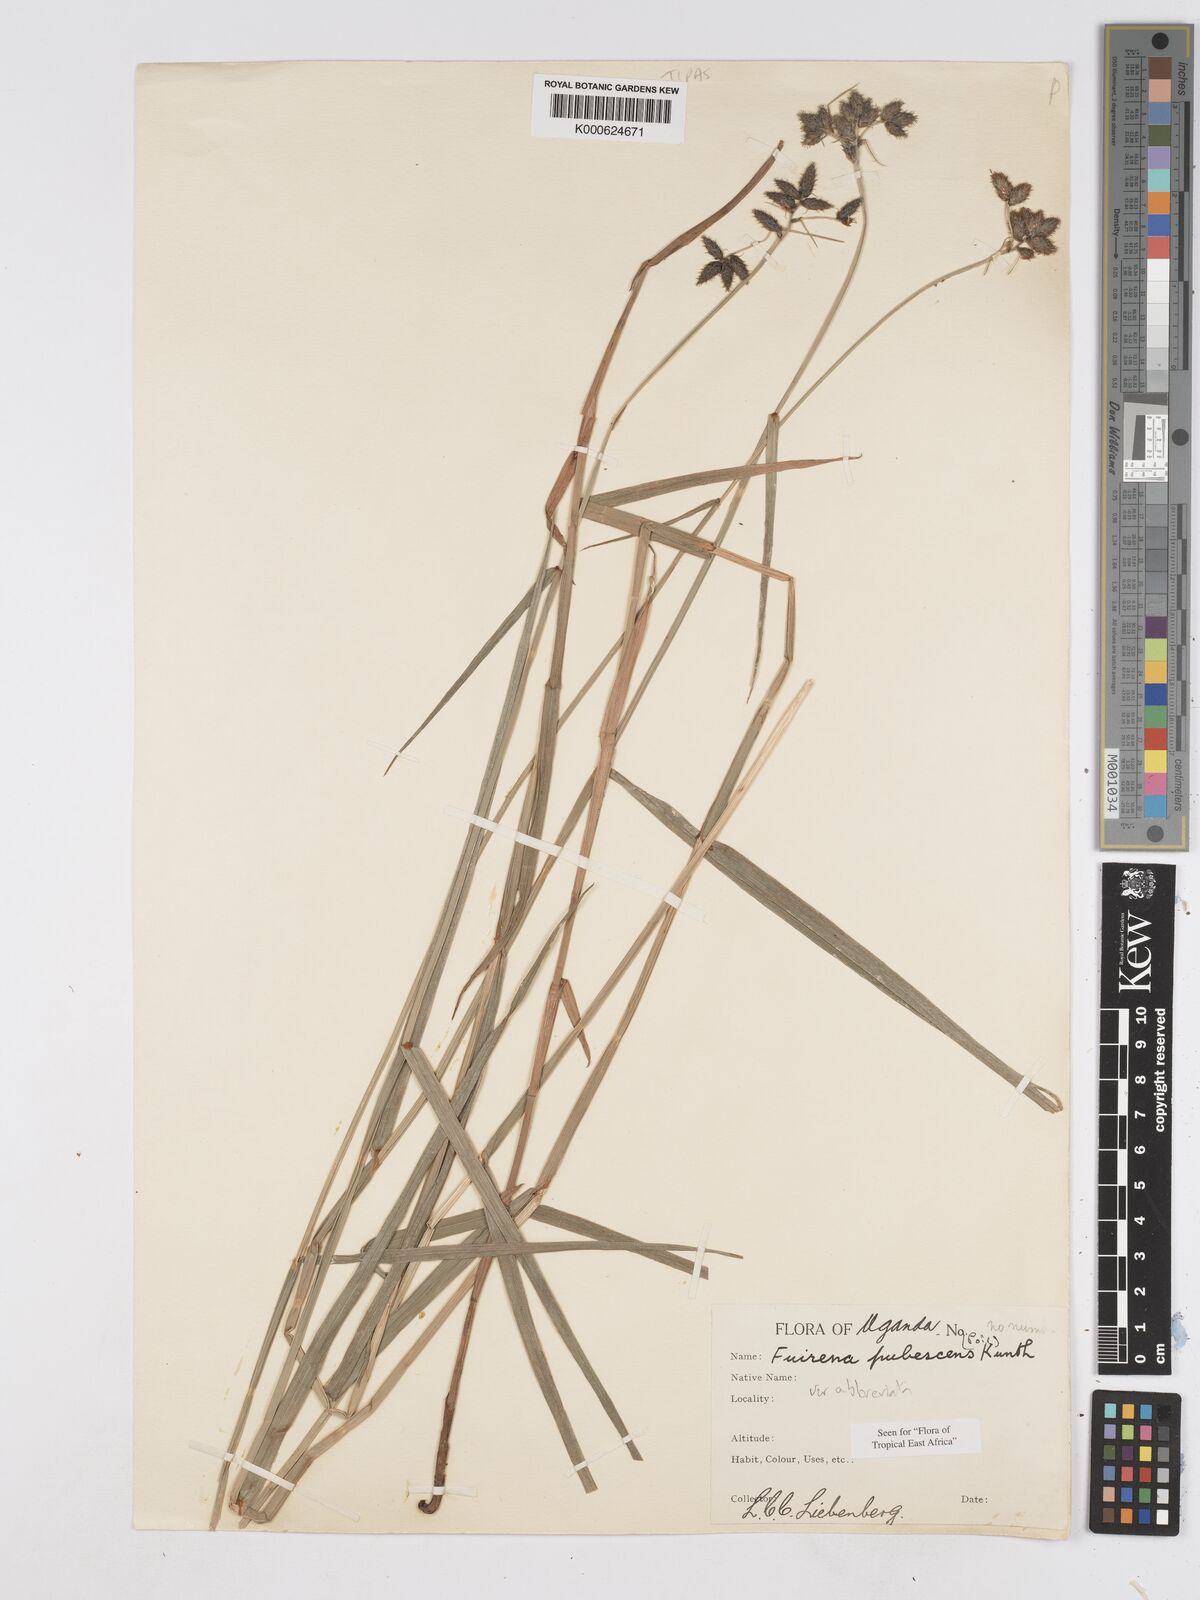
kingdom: Plantae
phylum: Tracheophyta
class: Liliopsida
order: Poales
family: Cyperaceae
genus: Fuirena
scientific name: Fuirena pubescens
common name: Hairy sedge
